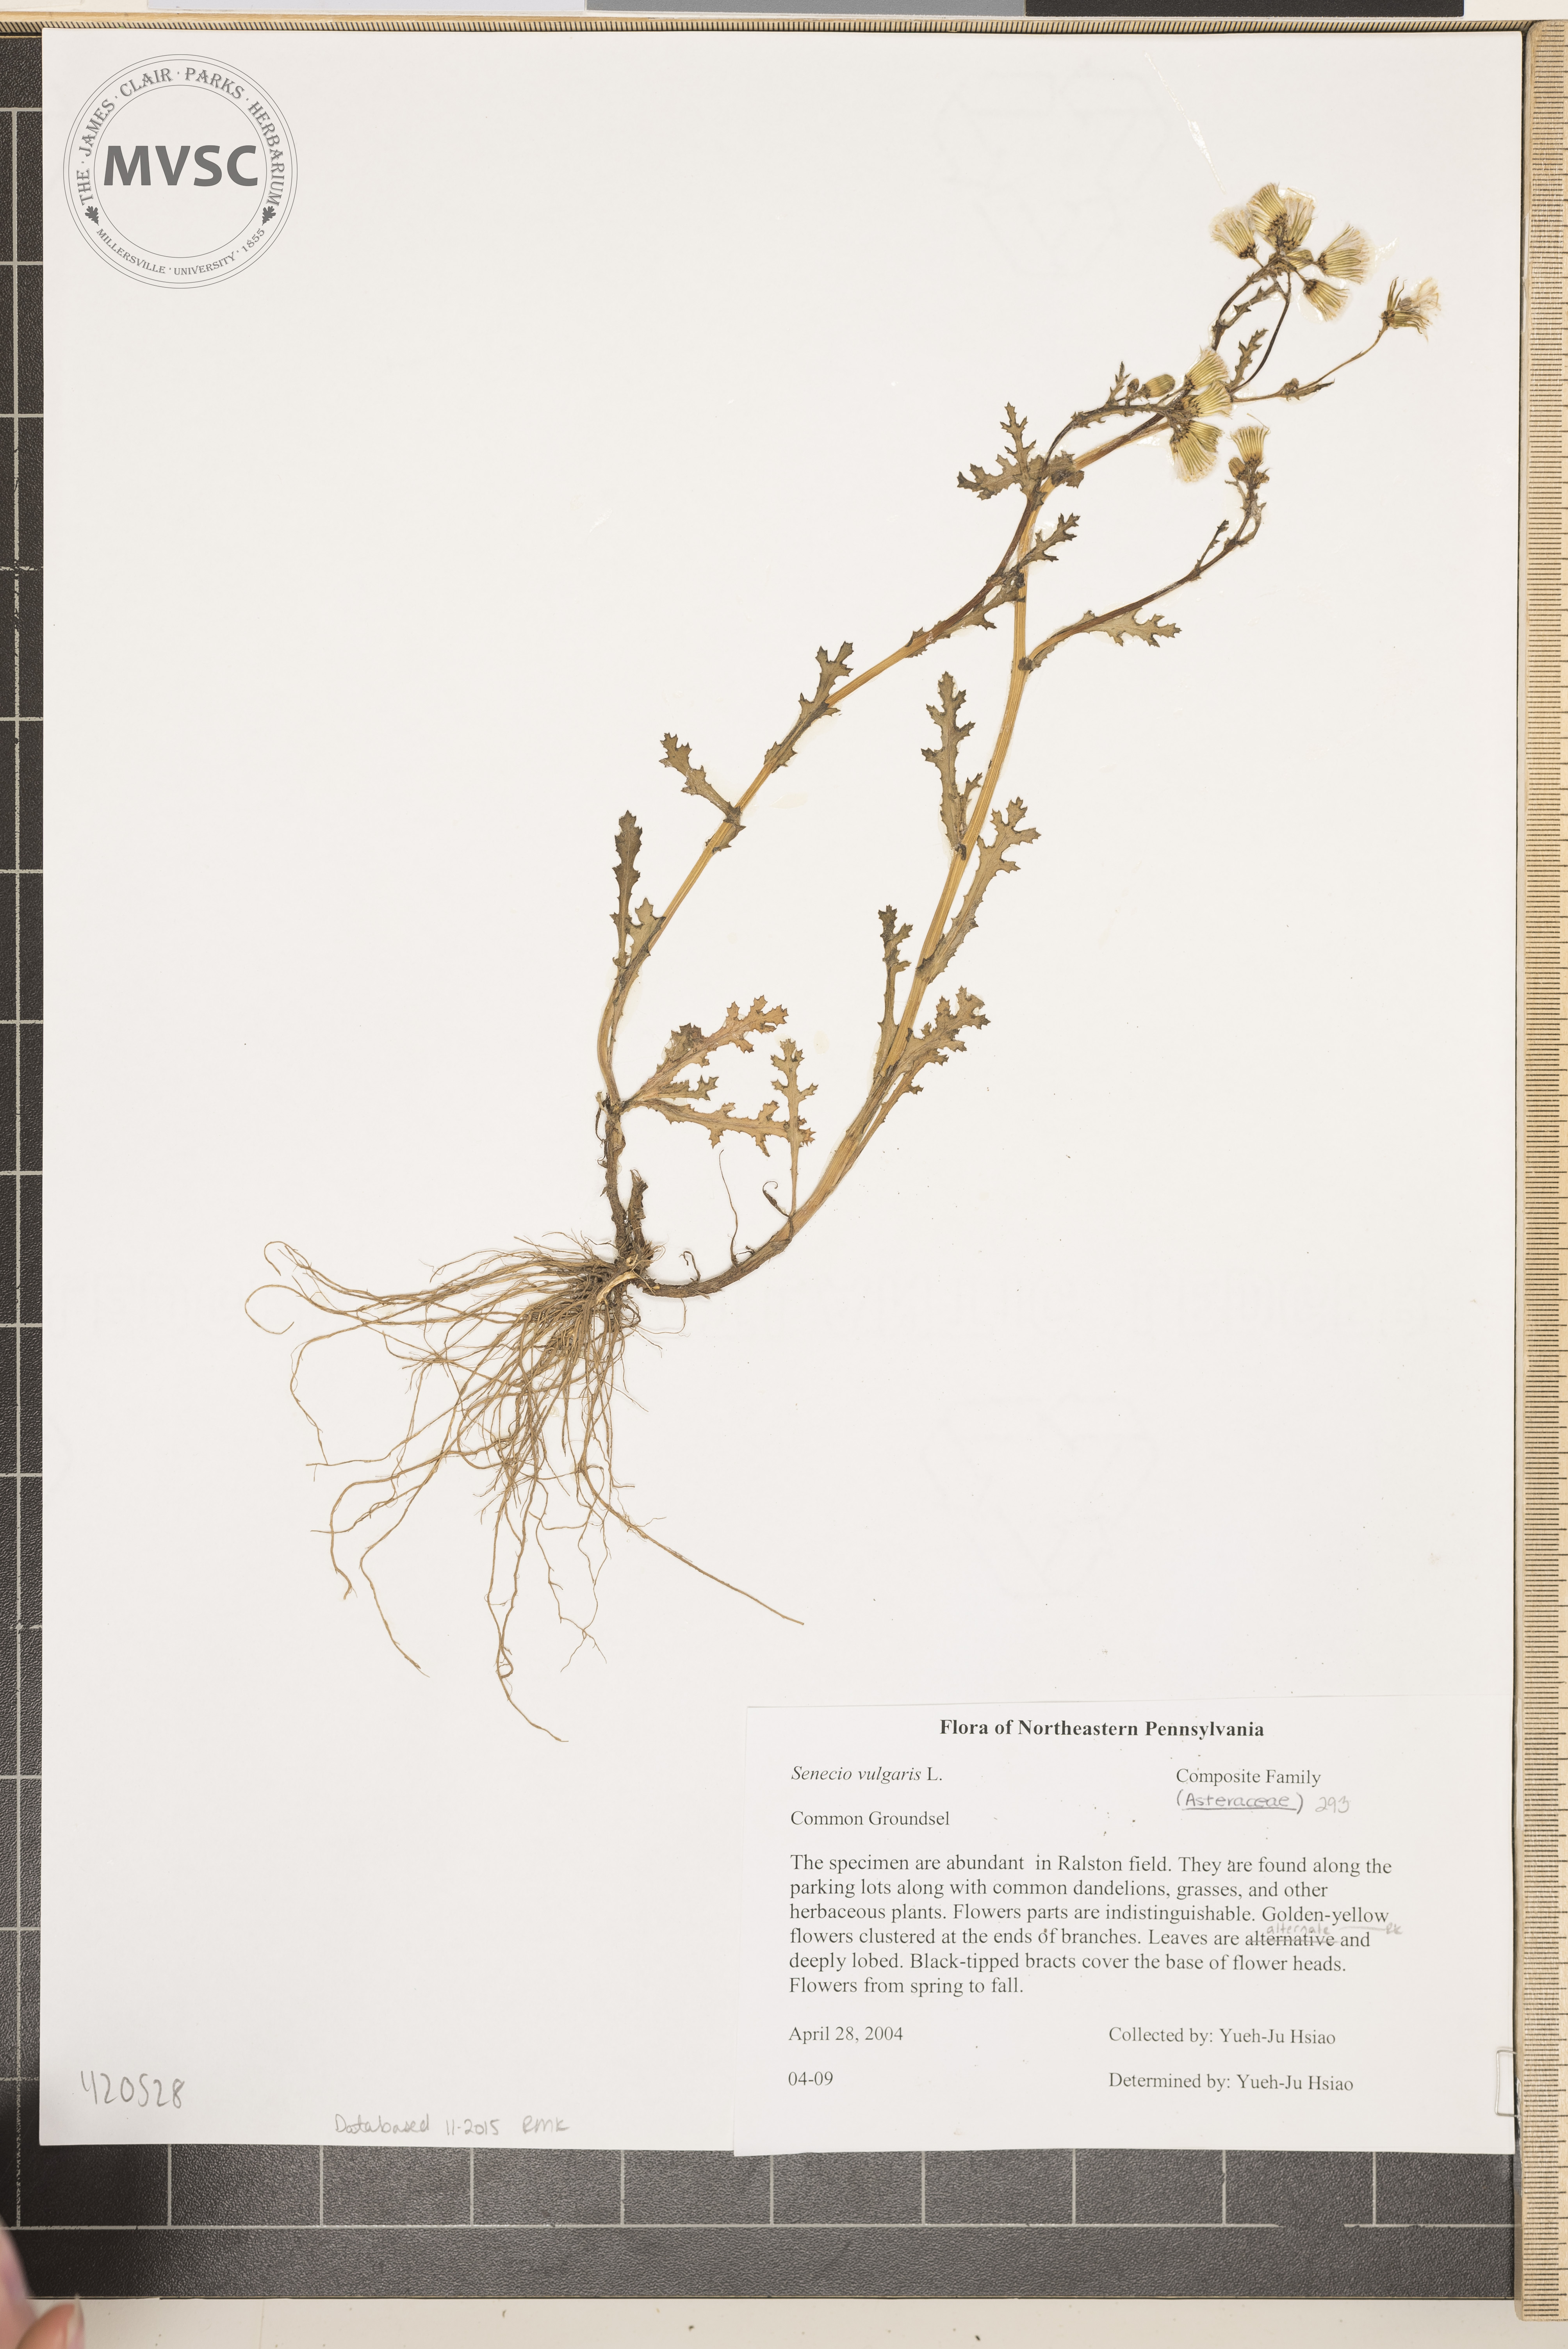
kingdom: Plantae
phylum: Tracheophyta
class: Magnoliopsida
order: Asterales
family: Asteraceae
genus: Senecio
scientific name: Senecio vulgaris
